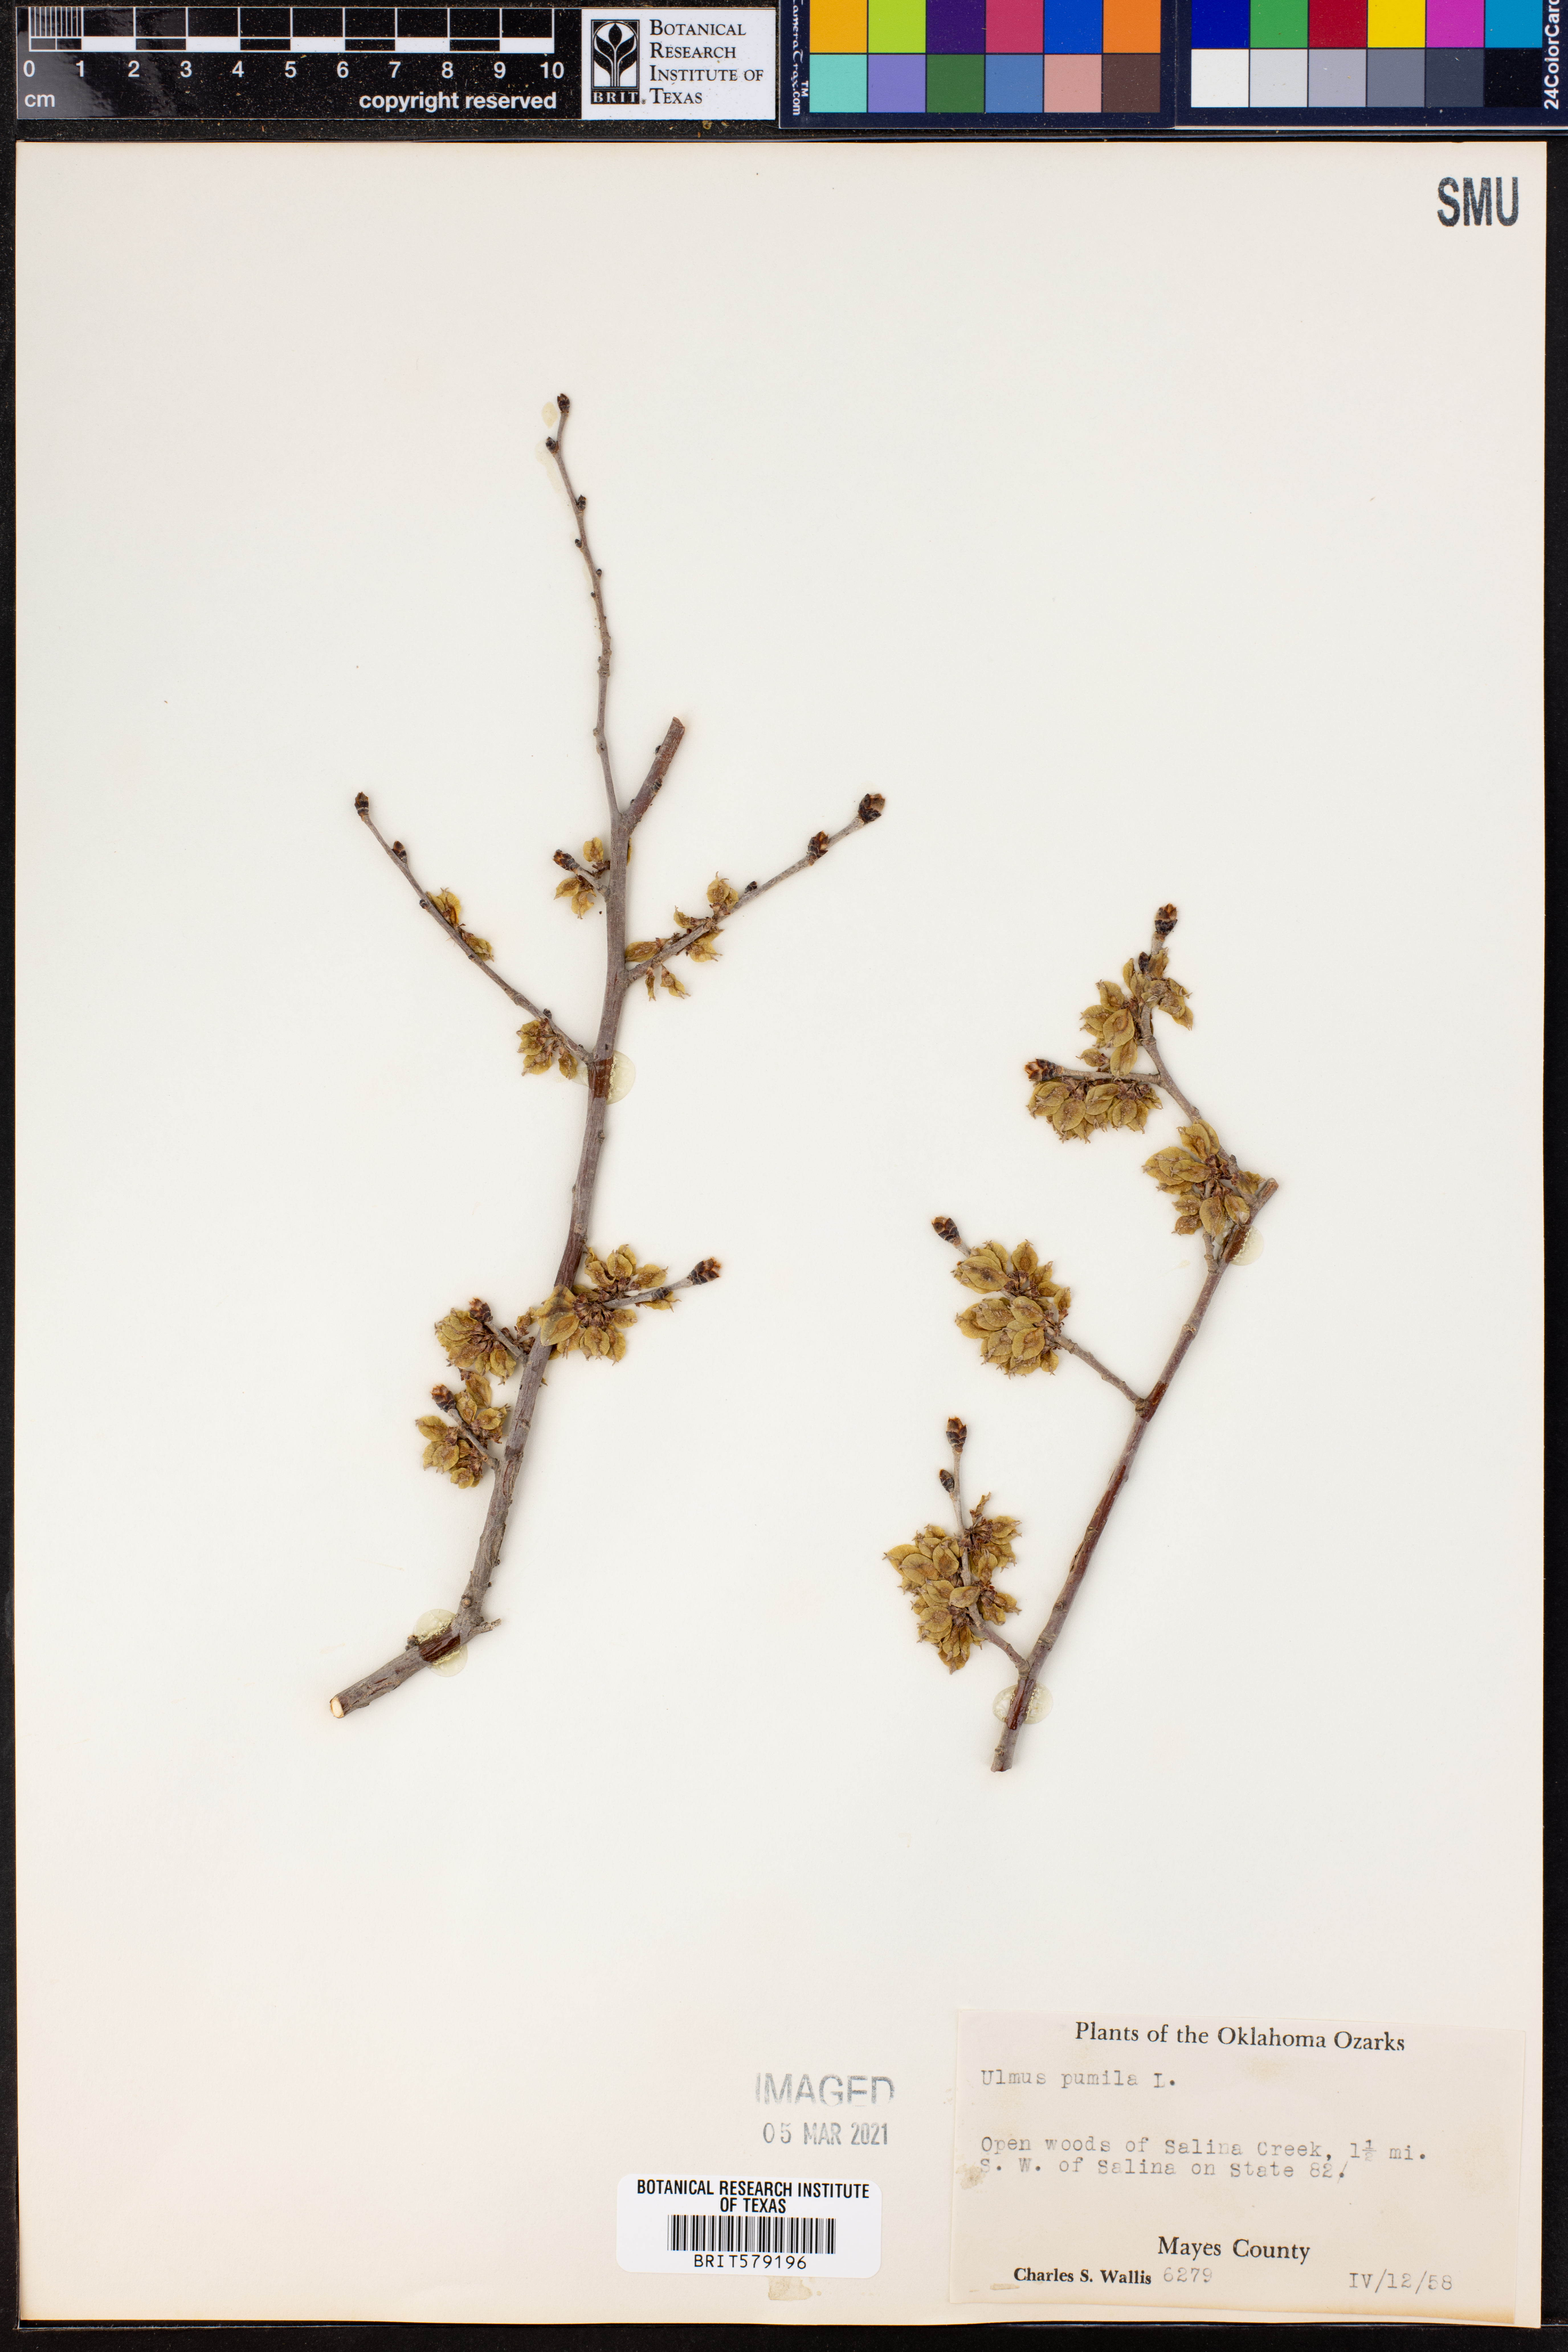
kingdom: Plantae
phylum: Tracheophyta
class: Magnoliopsida
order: Rosales
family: Ulmaceae
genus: Ulmus
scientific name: Ulmus pumila
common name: Siberian elm
